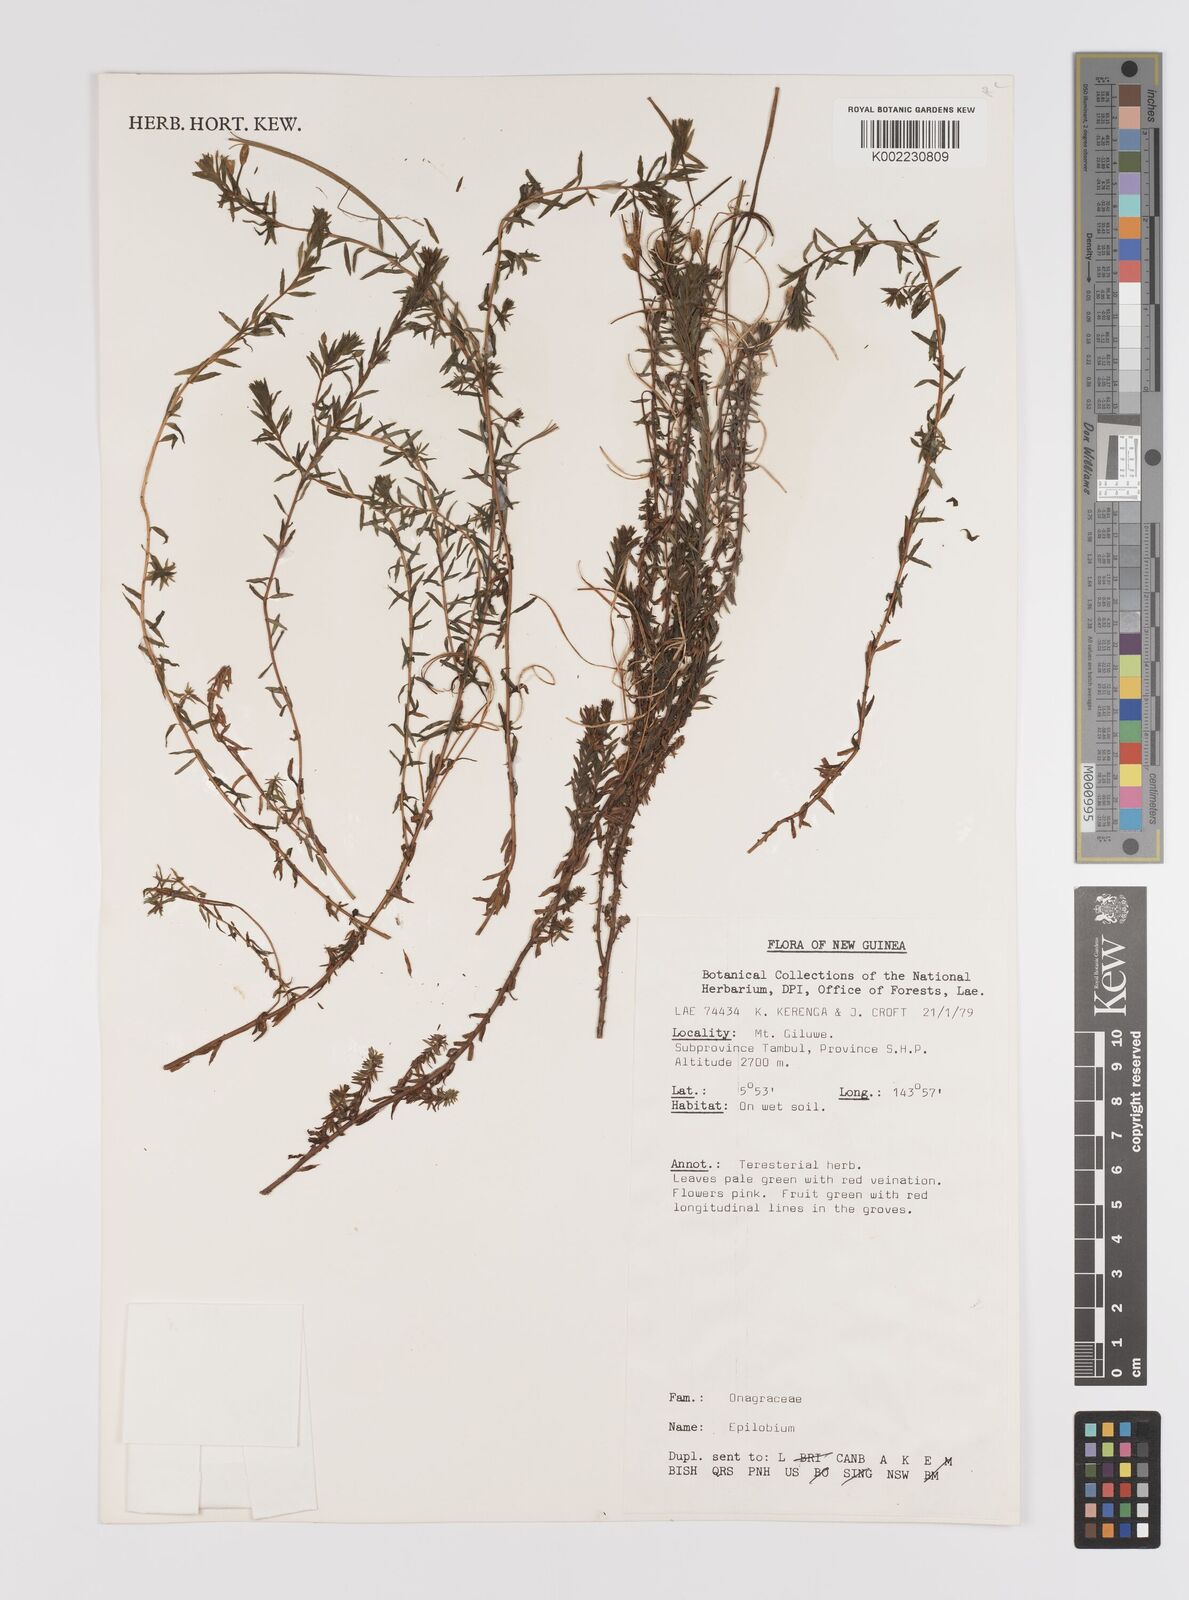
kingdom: Plantae
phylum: Tracheophyta
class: Magnoliopsida
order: Myrtales
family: Onagraceae
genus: Epilobium
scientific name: Epilobium
